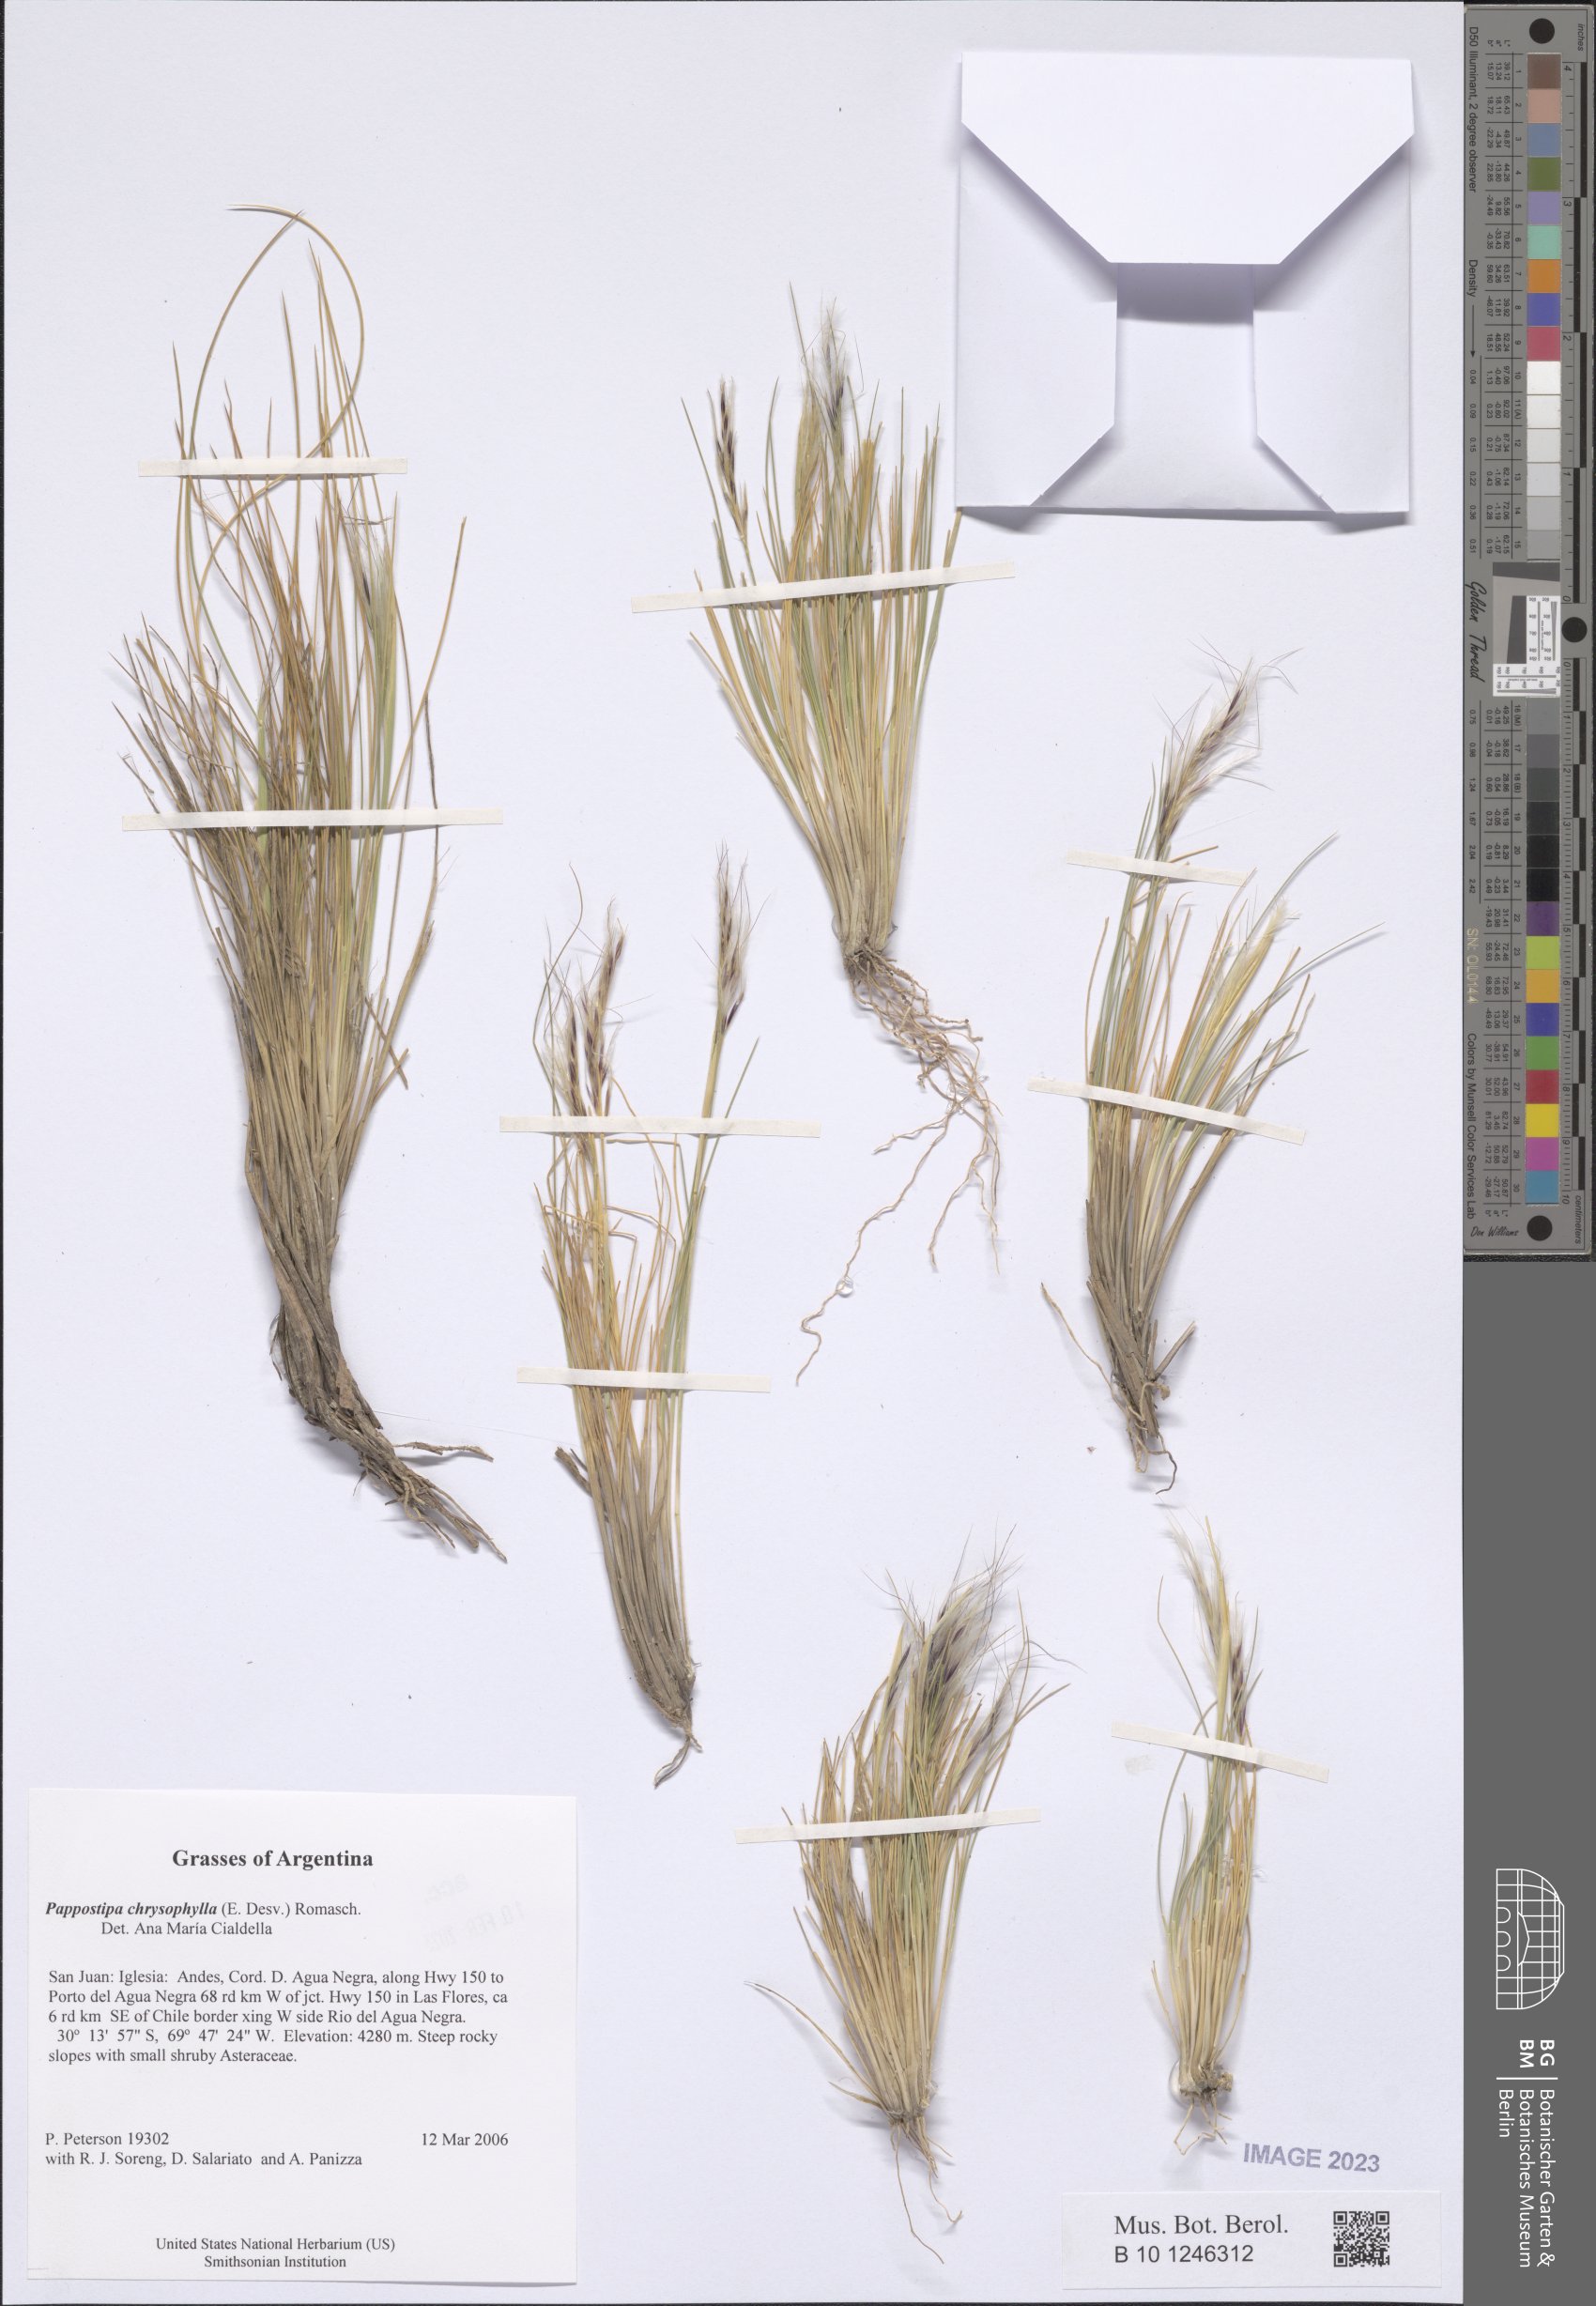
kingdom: Plantae
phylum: Tracheophyta
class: Liliopsida
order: Poales
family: Poaceae
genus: Pappostipa
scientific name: Pappostipa chrysophylla
